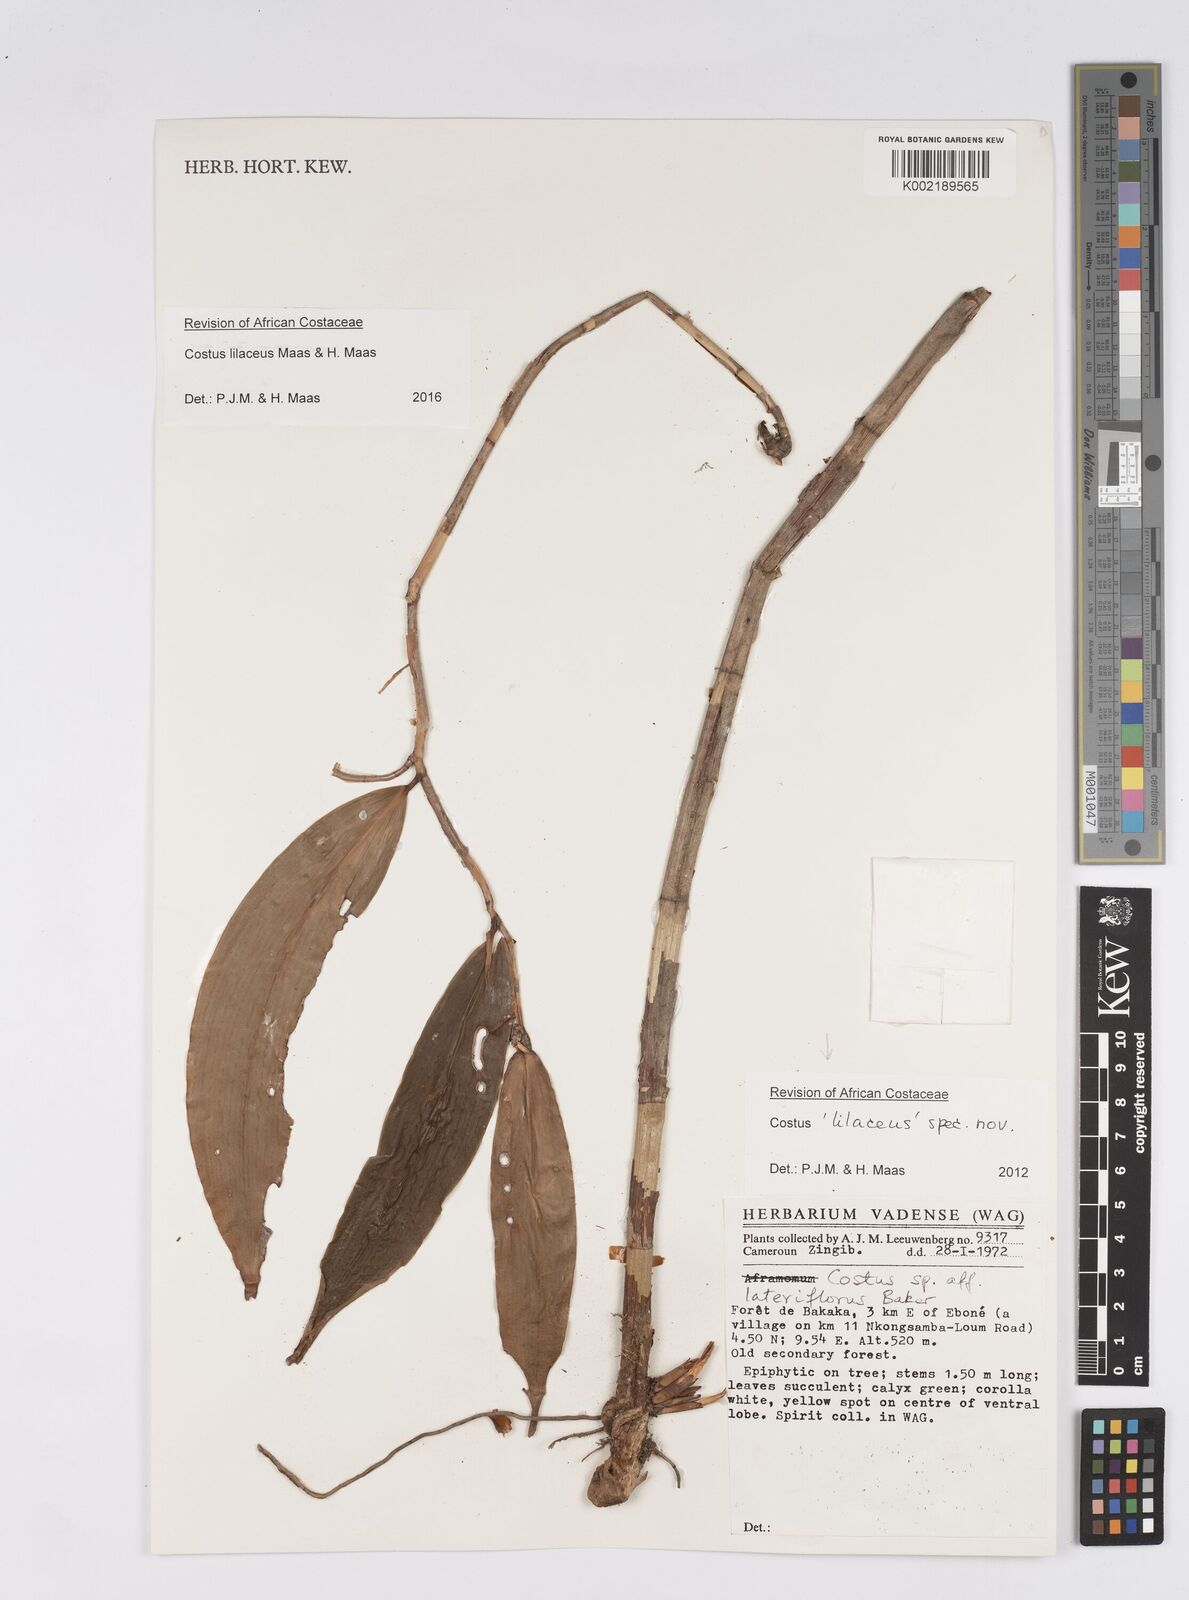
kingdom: Plantae
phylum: Tracheophyta
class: Liliopsida
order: Zingiberales
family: Costaceae
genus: Costus
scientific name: Costus lilaceus
